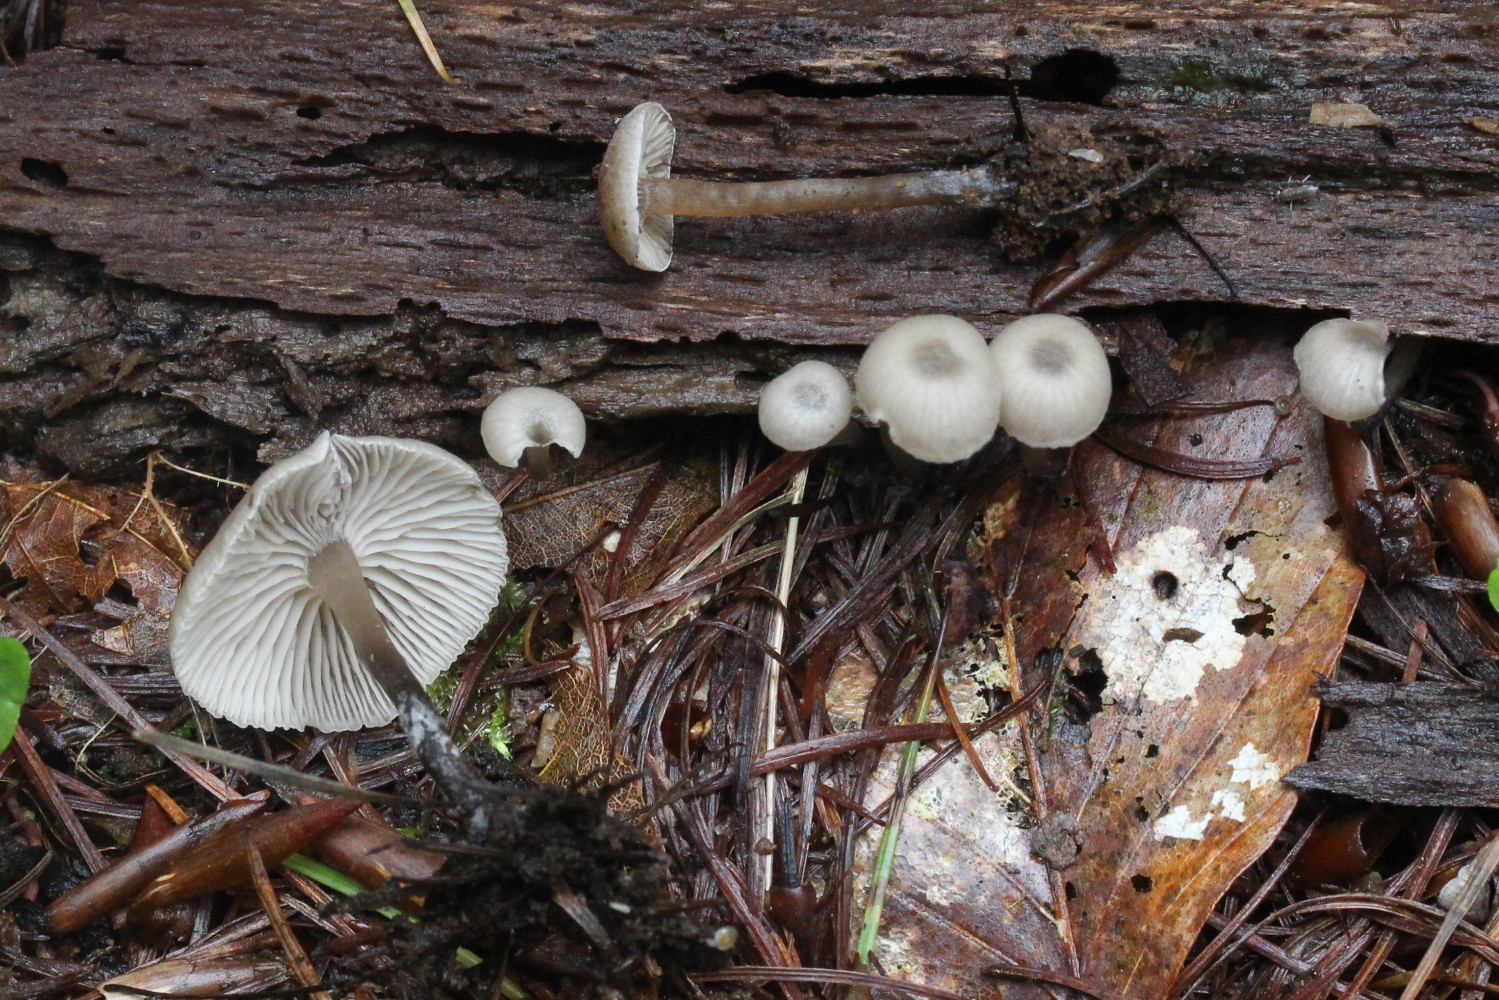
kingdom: Fungi
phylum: Basidiomycota
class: Agaricomycetes
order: Agaricales
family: Tricholomataceae
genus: Omphalina
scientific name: Omphalina microsperma
